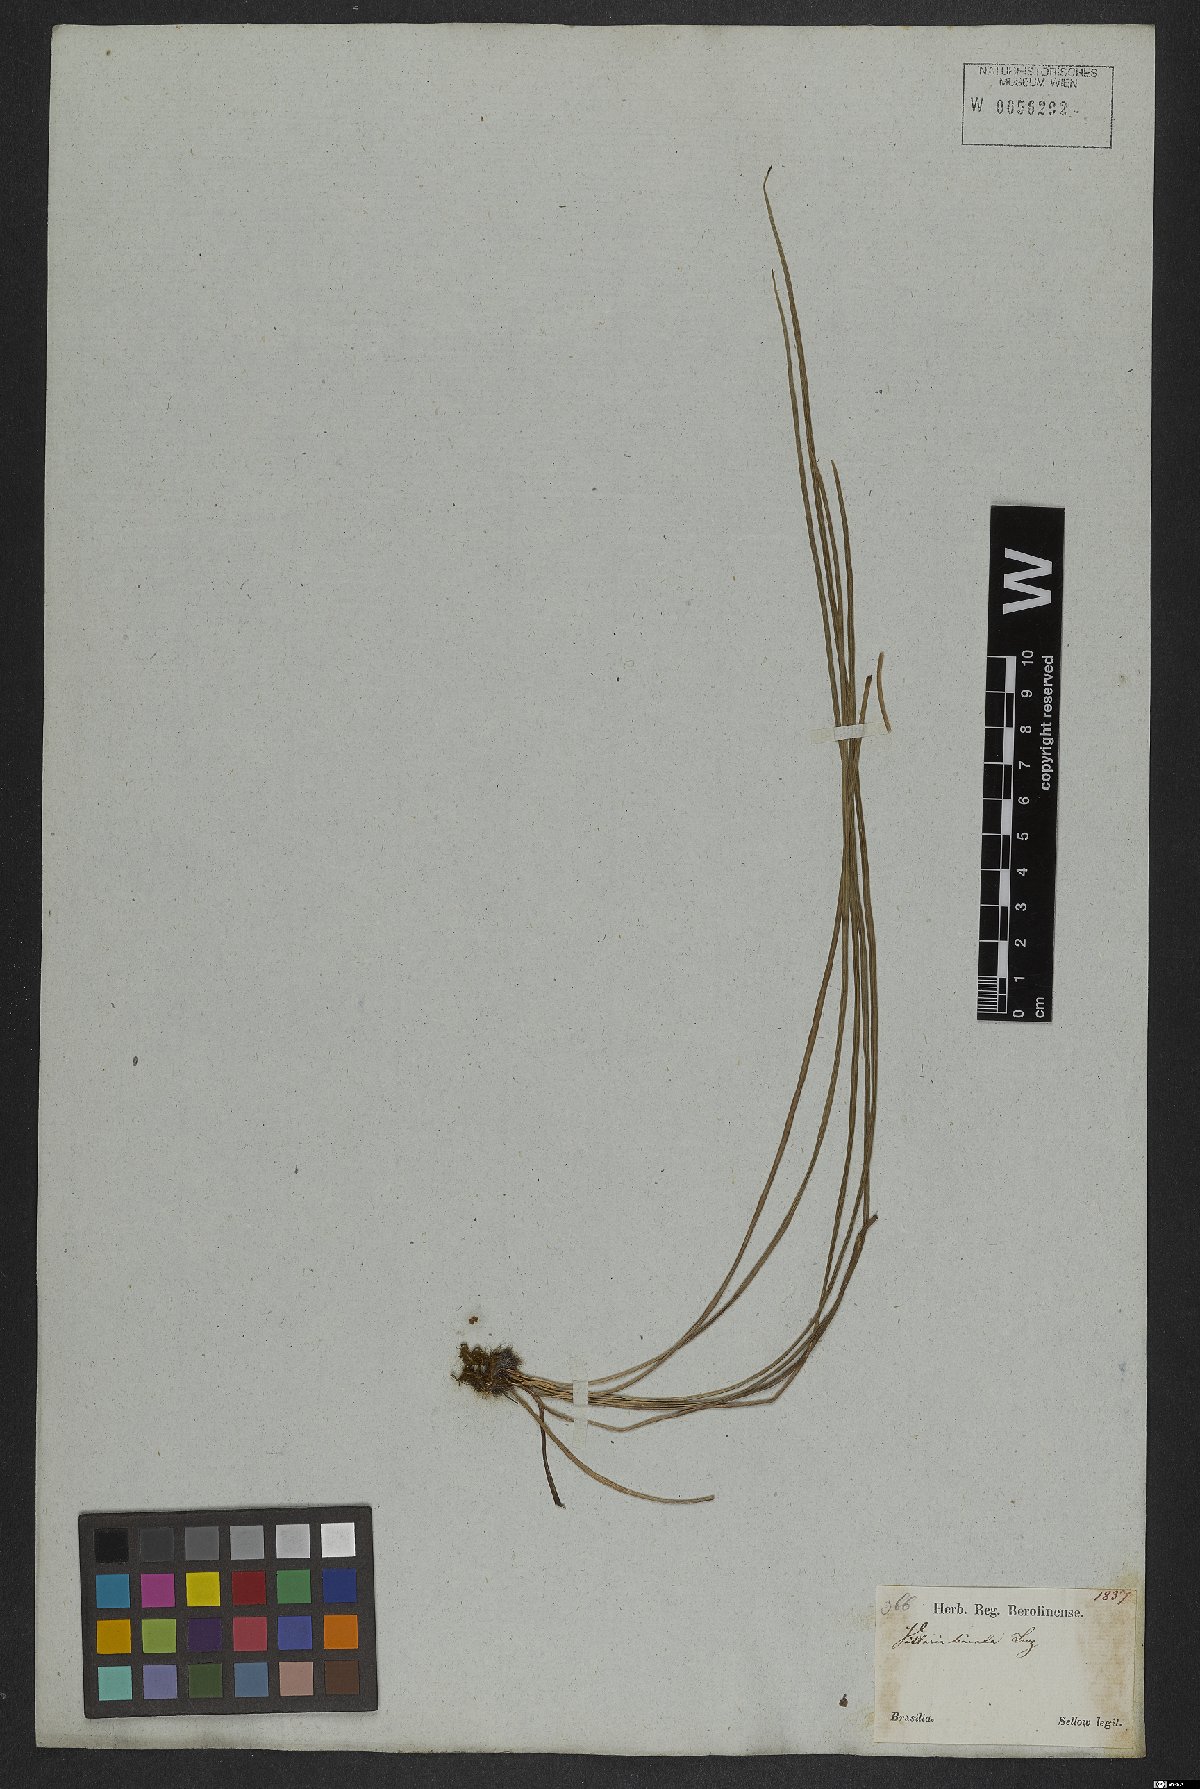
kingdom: Plantae
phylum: Tracheophyta
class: Polypodiopsida
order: Polypodiales
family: Pteridaceae
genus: Vittaria
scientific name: Vittaria lineata
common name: Shoestring fern
